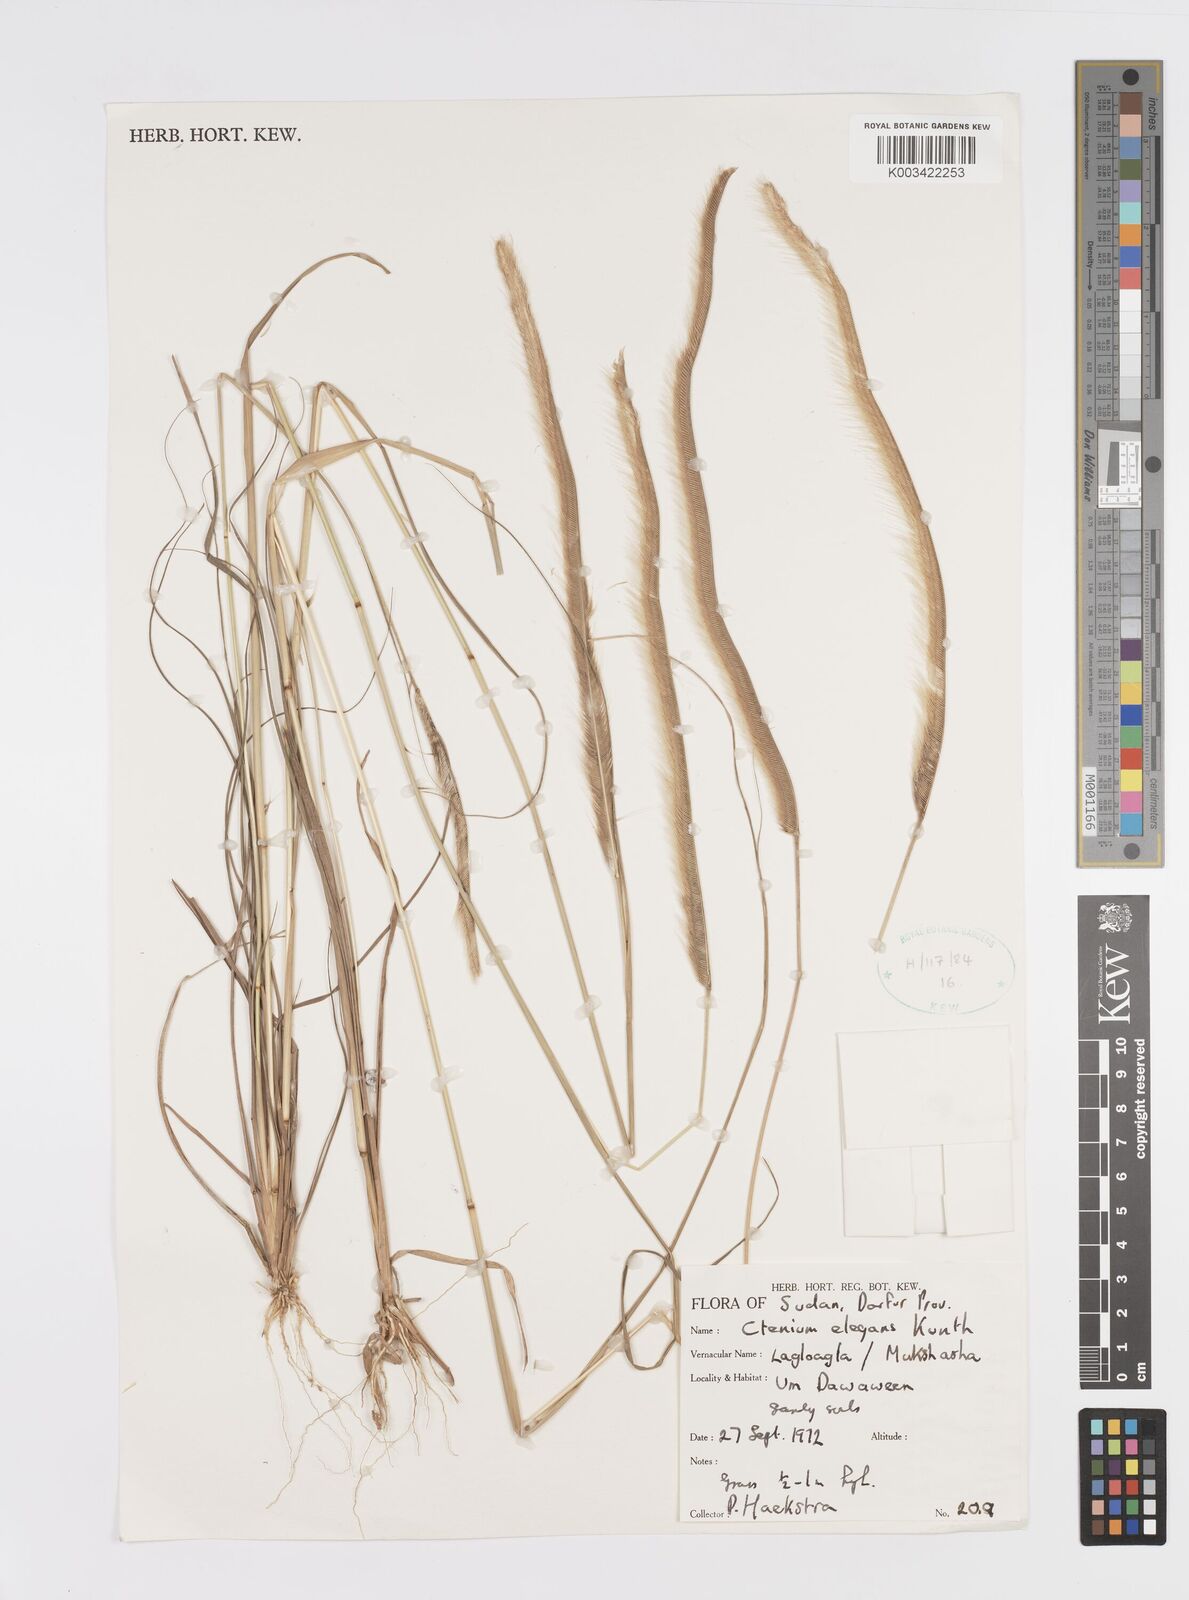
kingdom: Plantae
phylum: Tracheophyta
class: Liliopsida
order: Poales
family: Poaceae
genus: Ctenium
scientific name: Ctenium elegans
